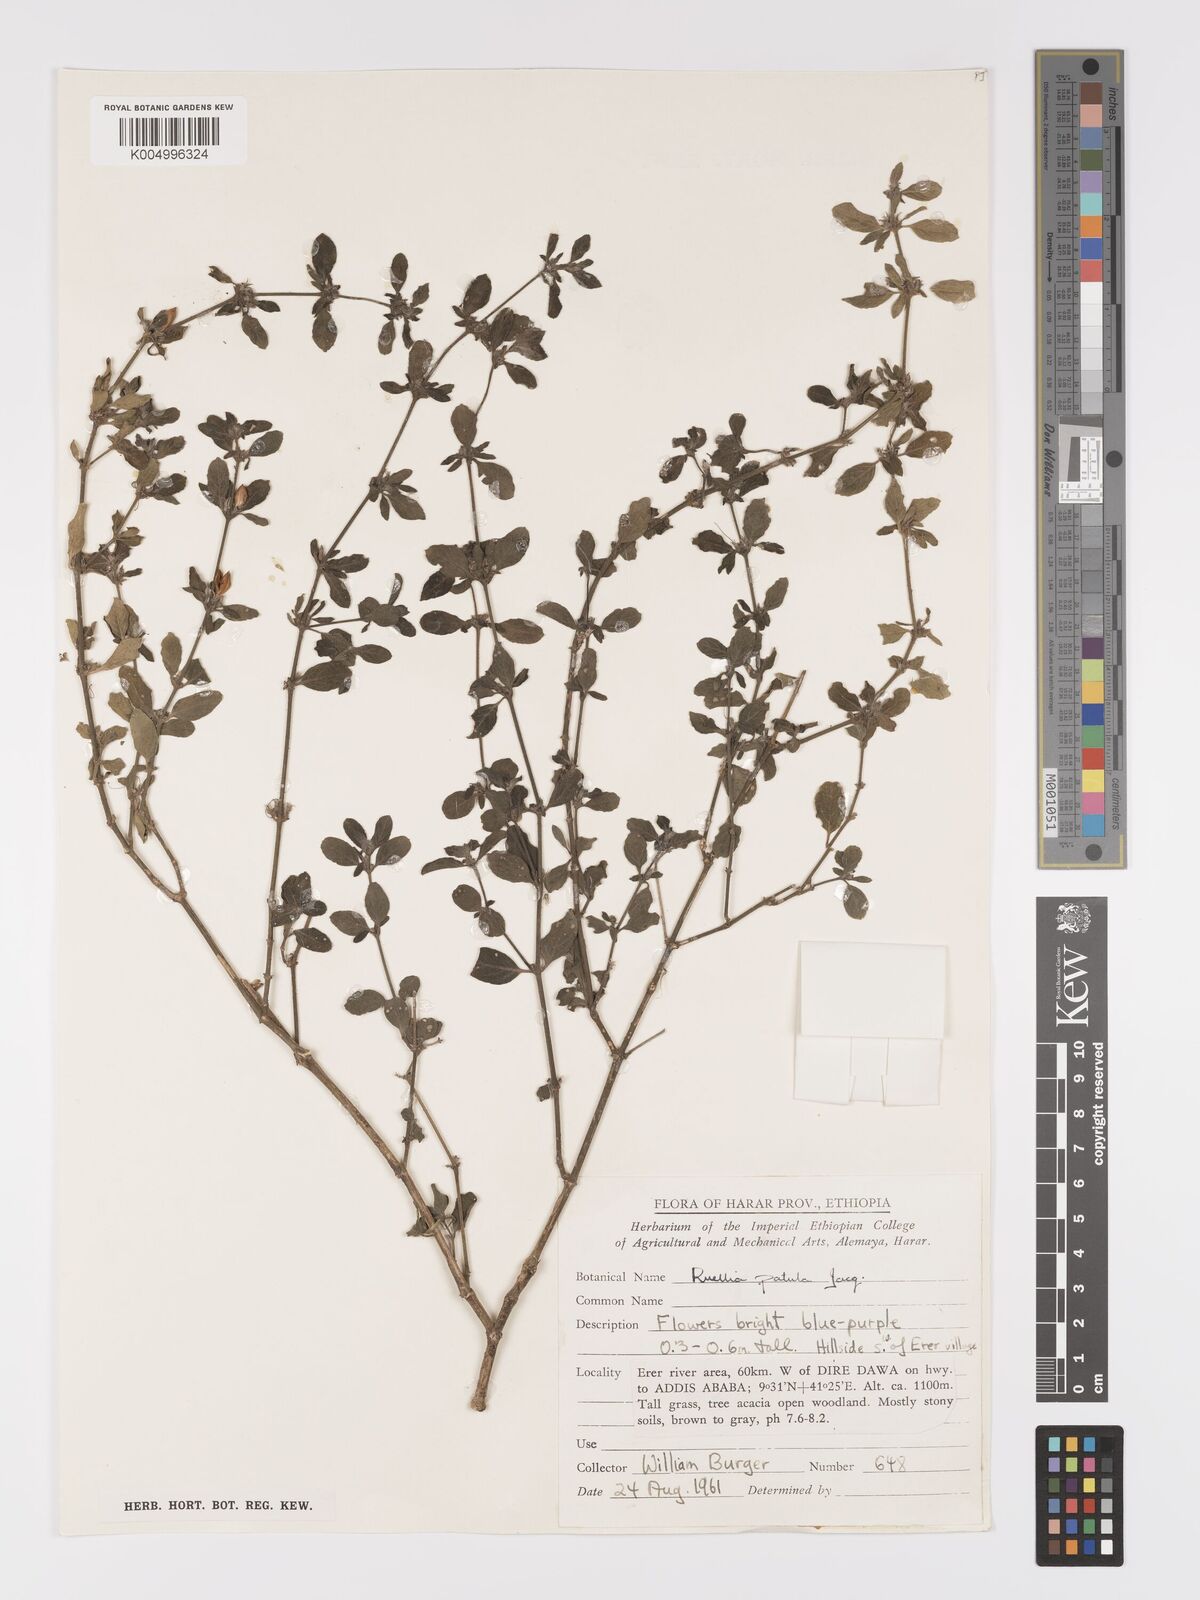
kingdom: Plantae
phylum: Tracheophyta
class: Magnoliopsida
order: Lamiales
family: Acanthaceae
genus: Ruellia
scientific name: Ruellia patula
